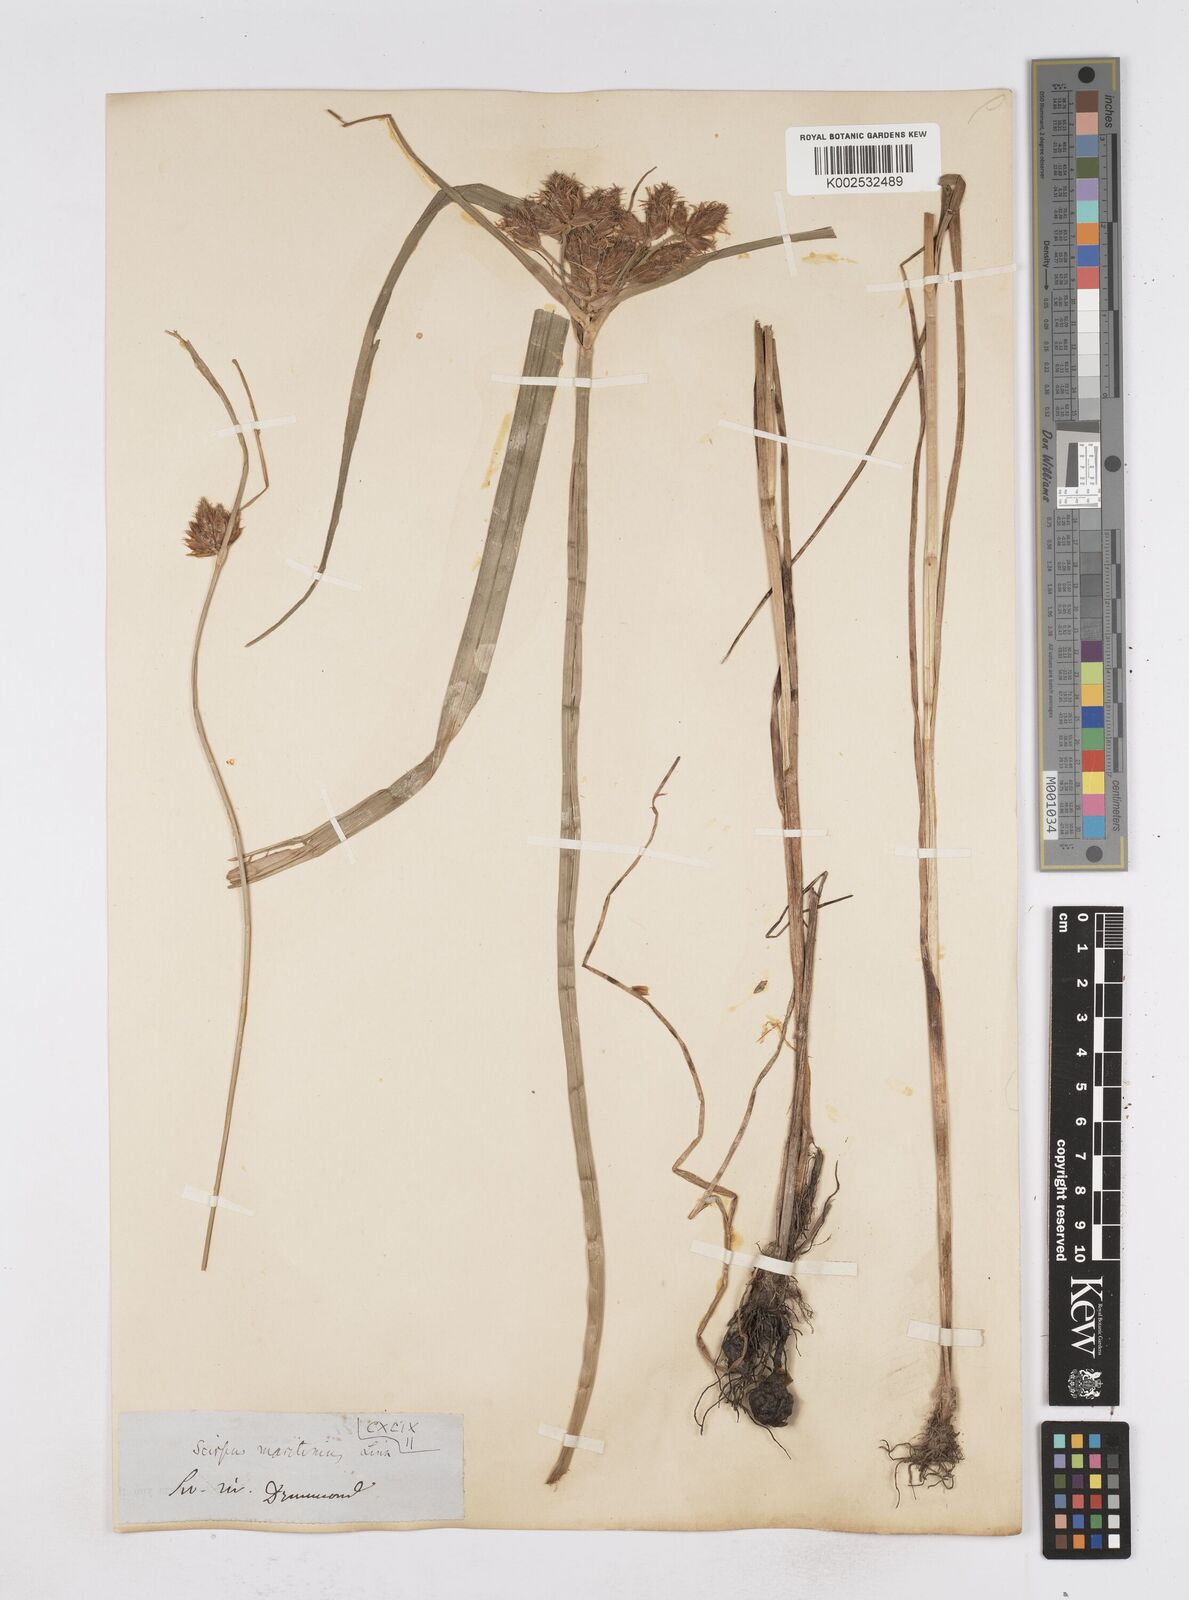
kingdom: Plantae
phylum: Tracheophyta
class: Liliopsida
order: Poales
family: Cyperaceae
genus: Bolboschoenus
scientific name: Bolboschoenus maritimus
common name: Sea club-rush
